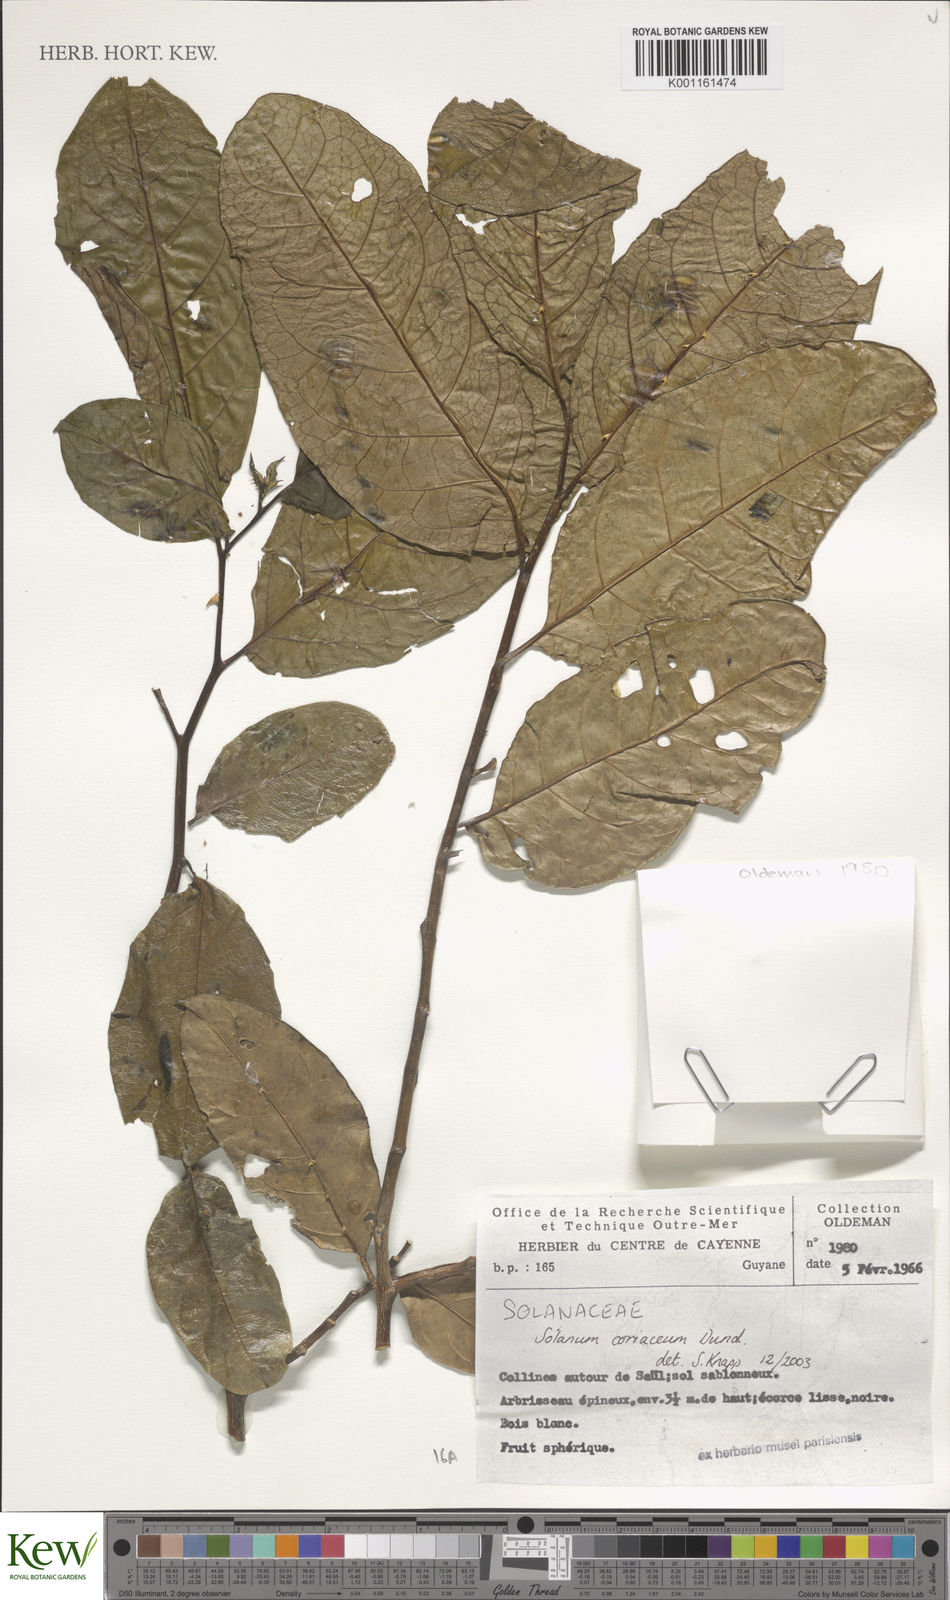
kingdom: Plantae
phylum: Tracheophyta
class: Magnoliopsida
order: Solanales
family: Solanaceae
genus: Solanum
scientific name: Solanum coriaceum
